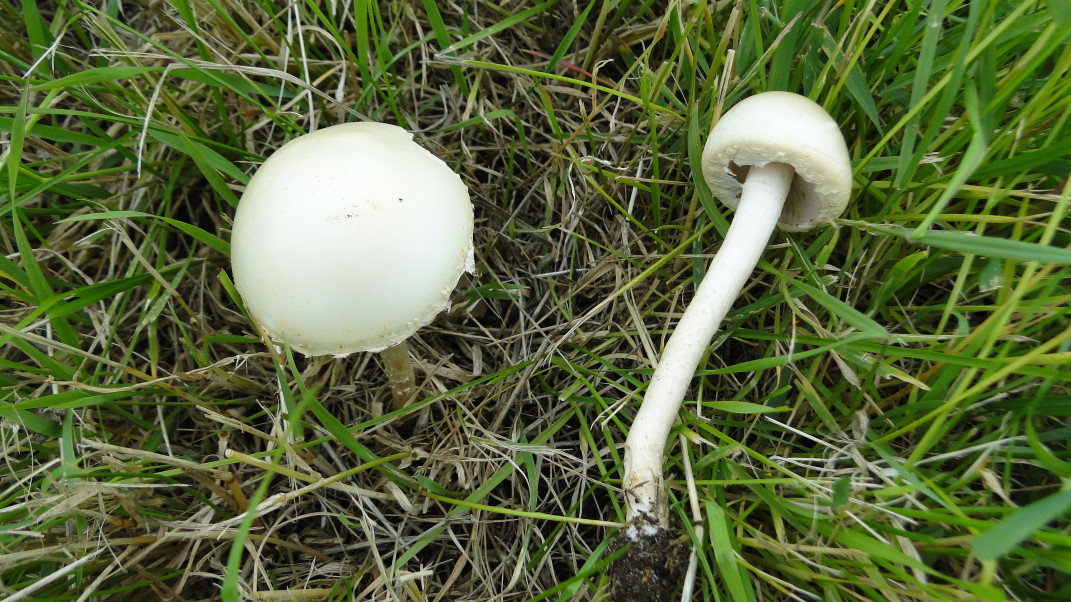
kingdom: Fungi
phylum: Basidiomycota
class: Agaricomycetes
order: Agaricales
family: Strophariaceae
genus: Agrocybe
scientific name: Agrocybe dura
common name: fastkødet agerhat
